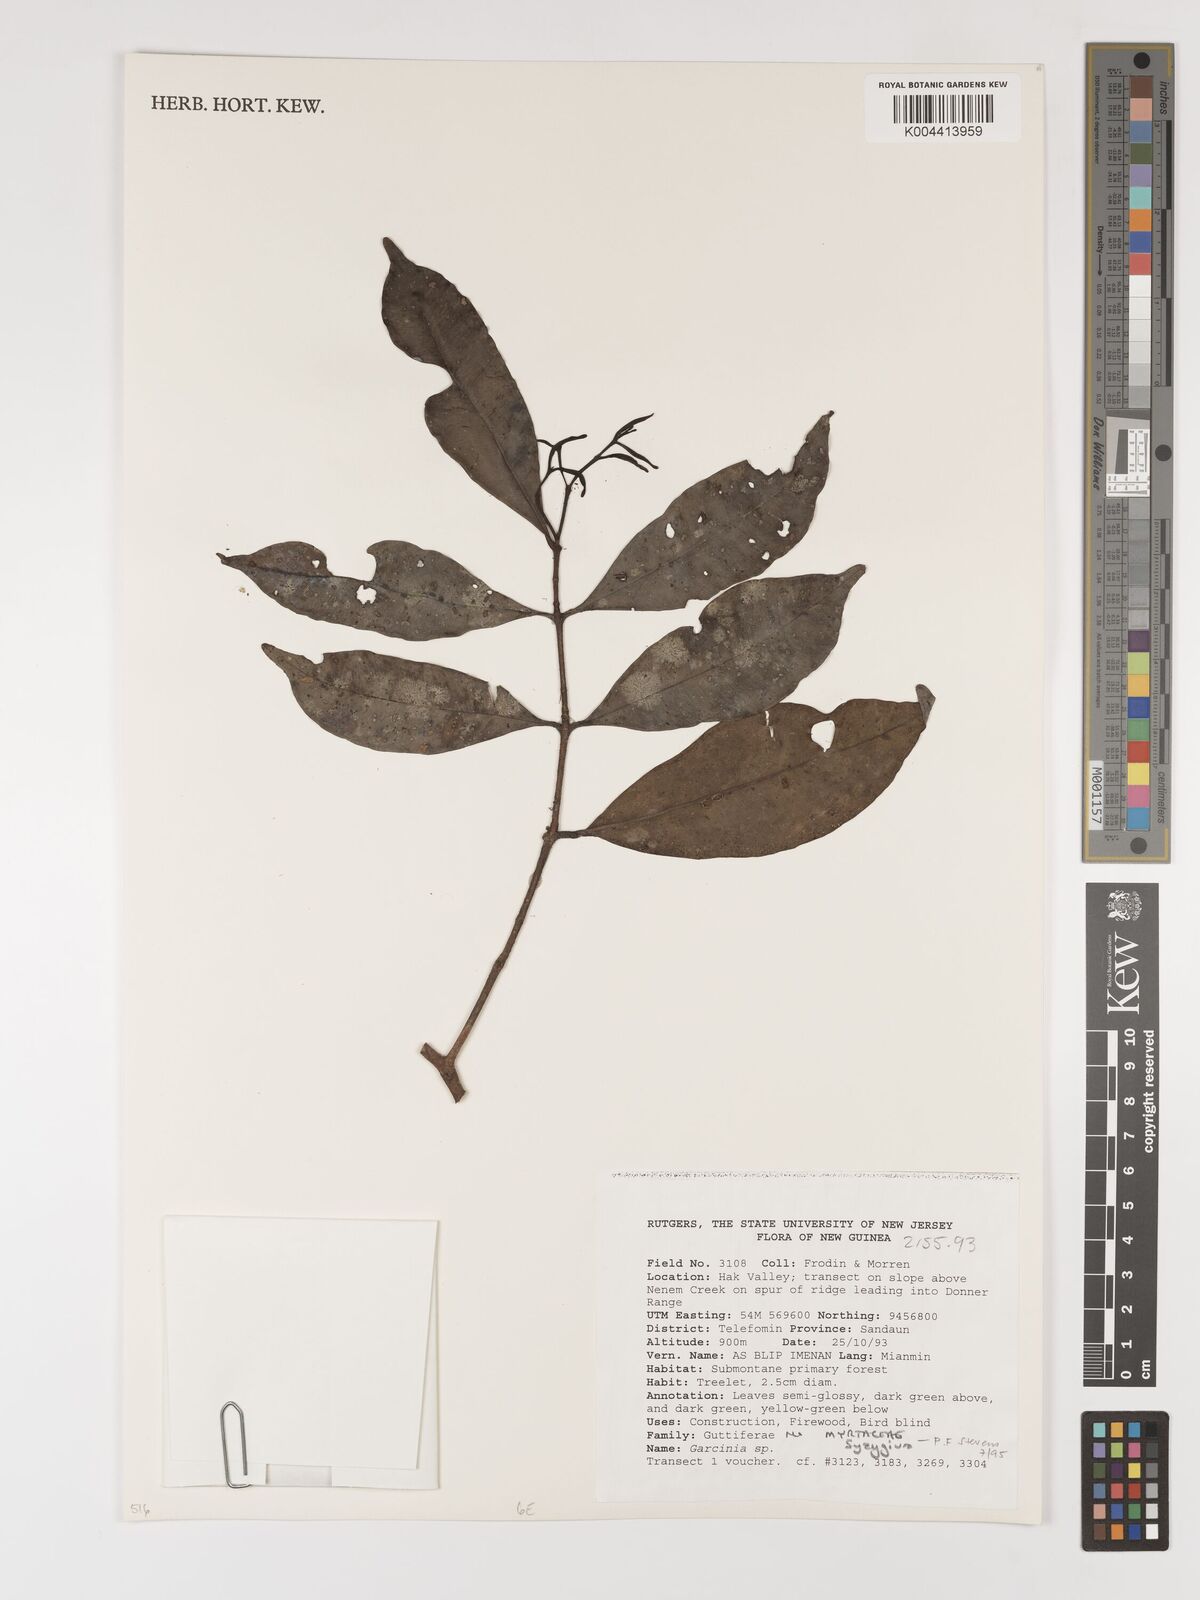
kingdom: Plantae
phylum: Tracheophyta
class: Magnoliopsida
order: Myrtales
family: Myrtaceae
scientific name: Myrtaceae
